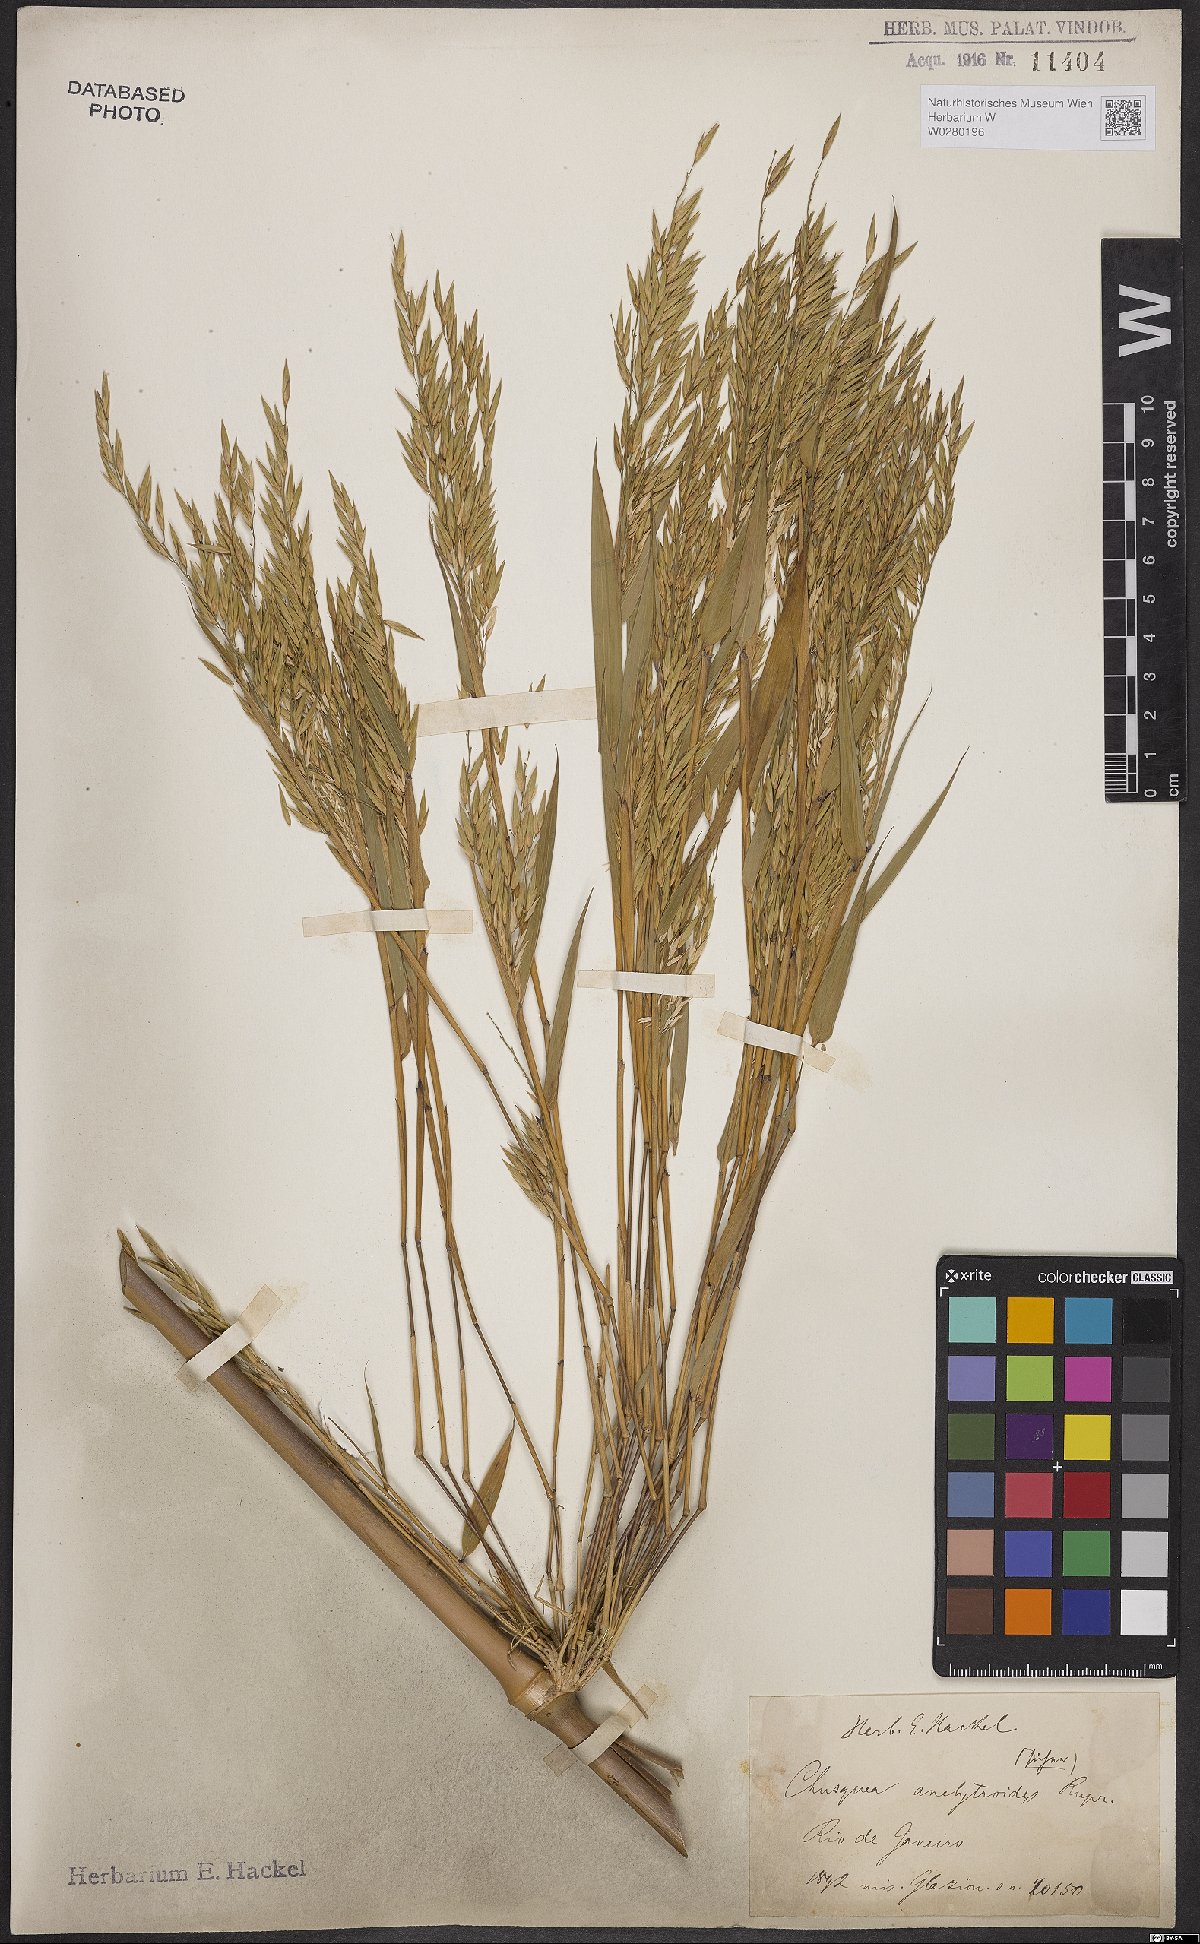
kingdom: Plantae
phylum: Tracheophyta
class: Liliopsida
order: Poales
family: Poaceae
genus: Chusquea
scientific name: Chusquea anelythroides
